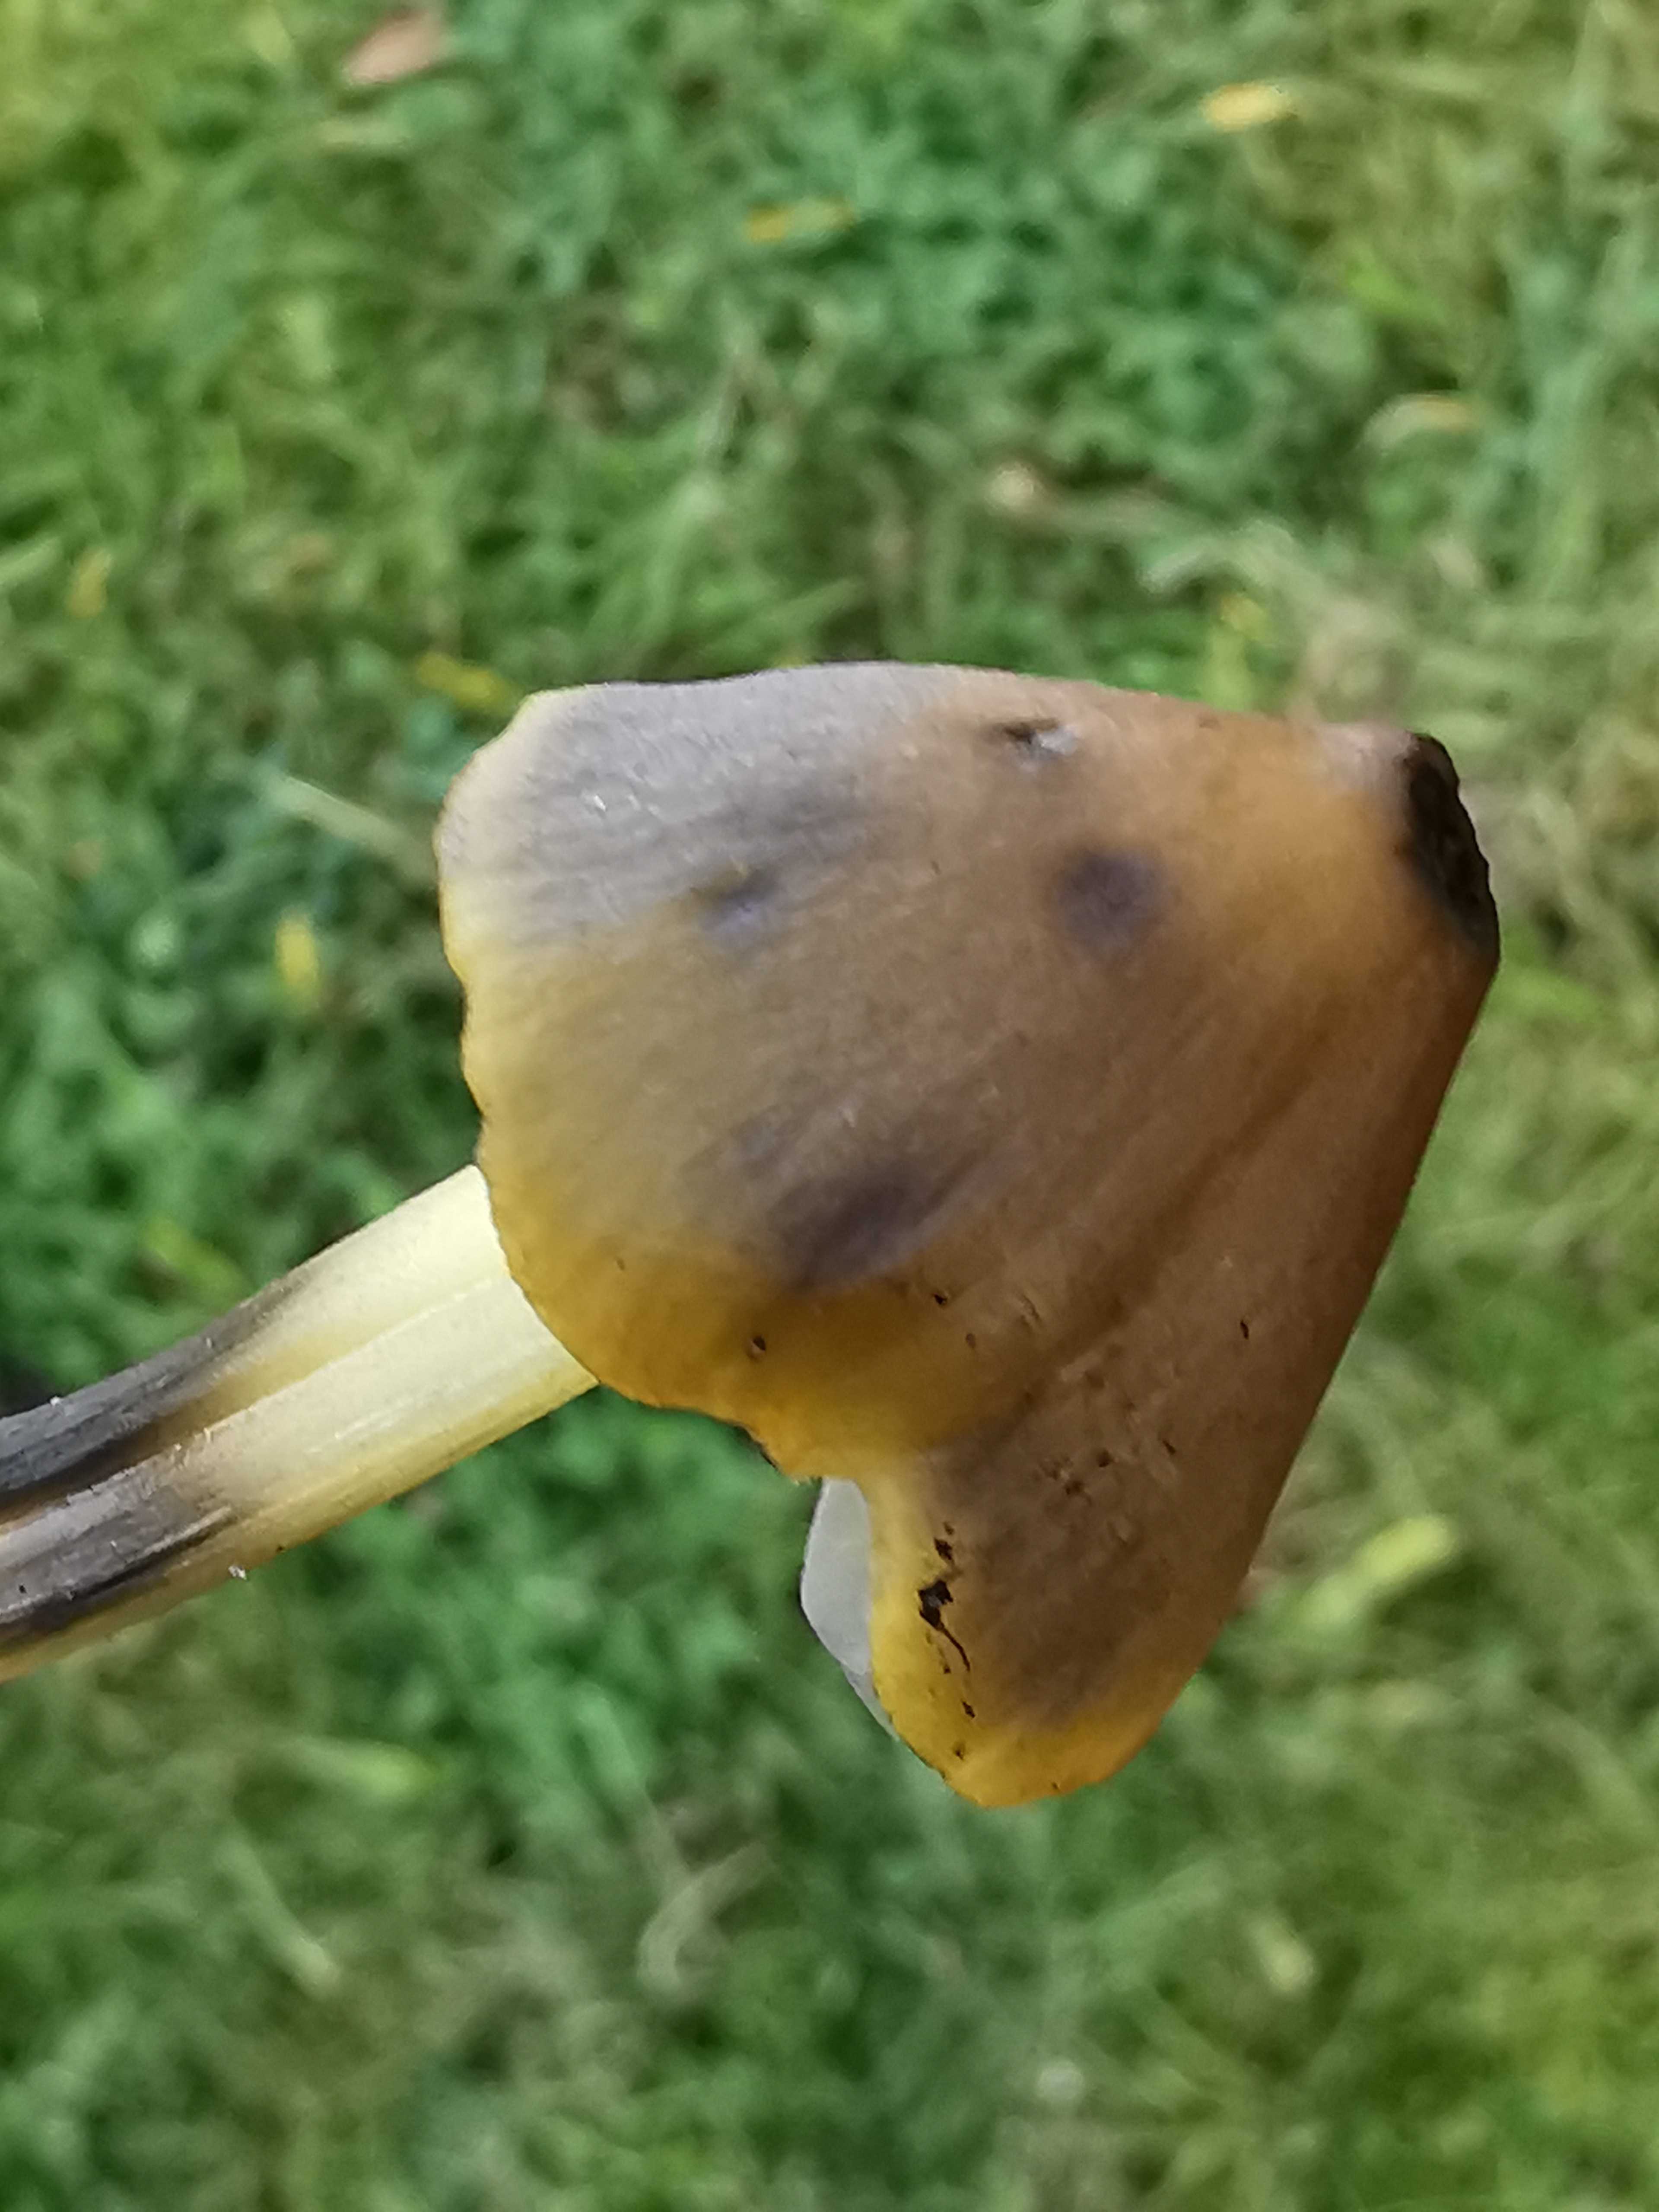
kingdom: Fungi
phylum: Basidiomycota
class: Agaricomycetes
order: Agaricales
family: Hygrophoraceae
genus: Hygrocybe
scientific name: Hygrocybe conica
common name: kegle-vokshat
